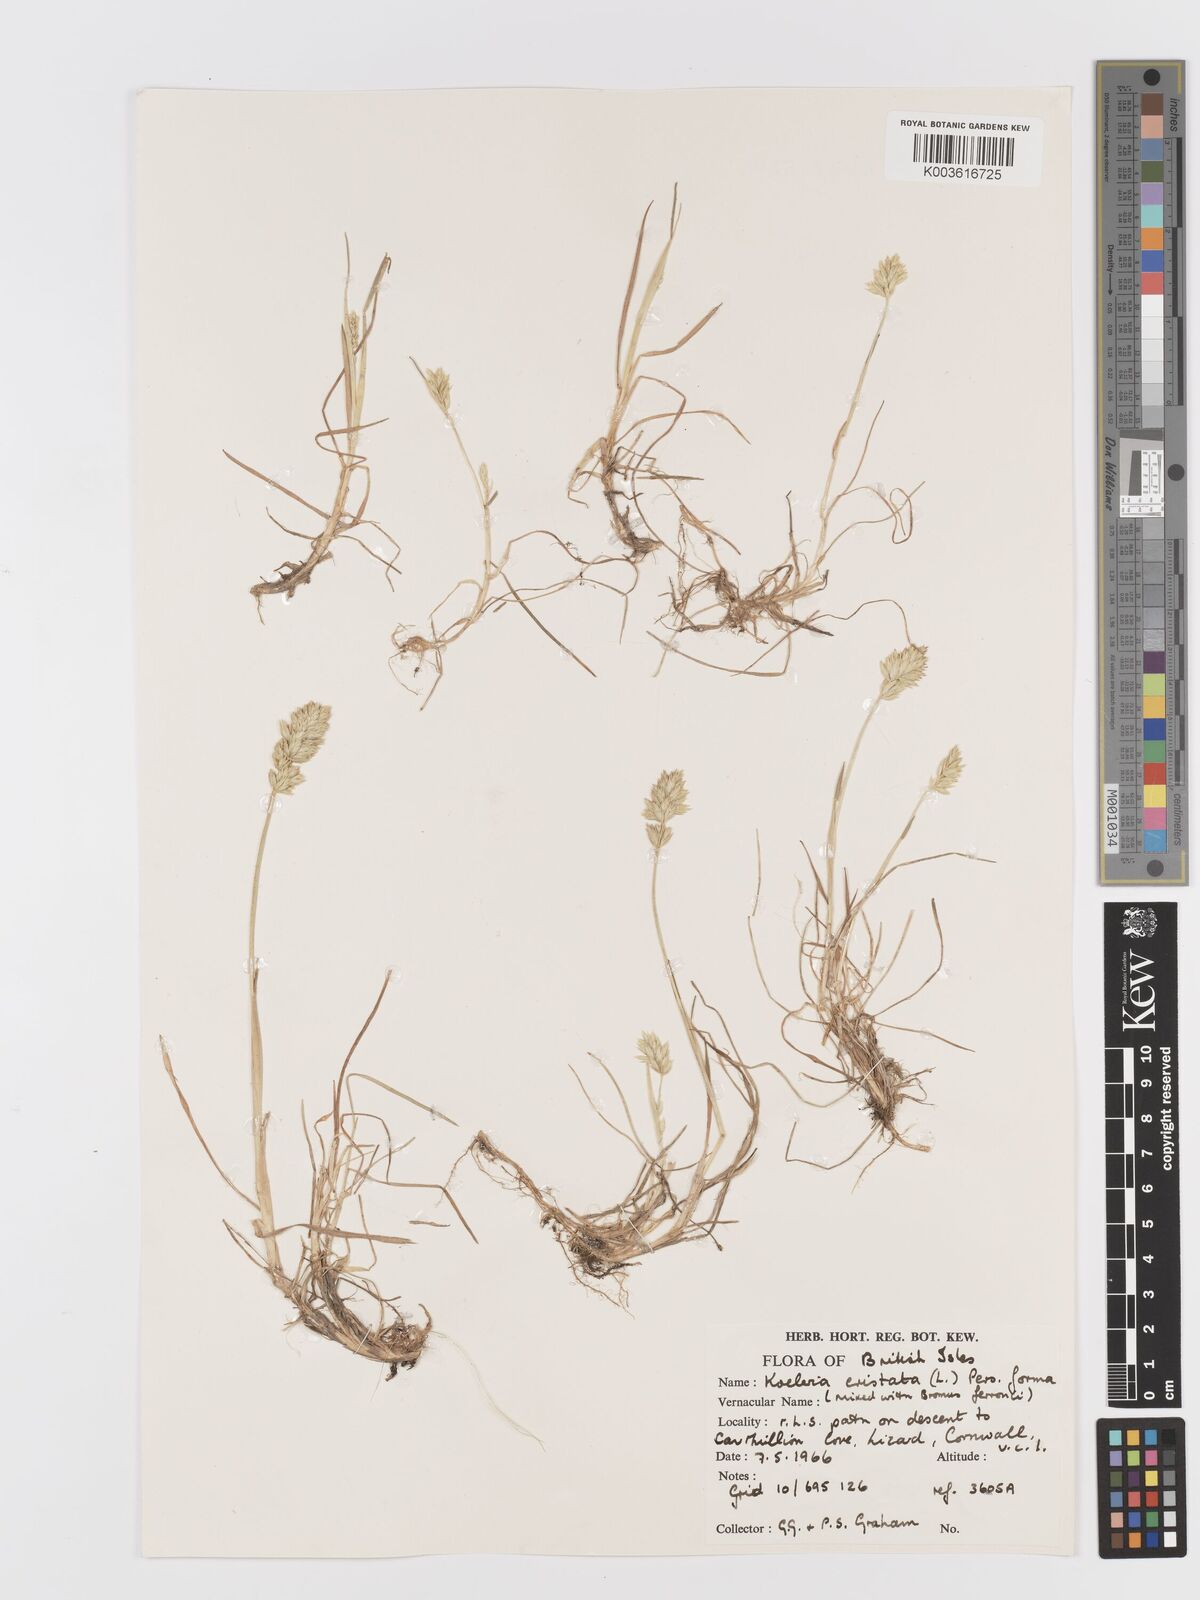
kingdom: Plantae
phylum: Tracheophyta
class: Liliopsida
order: Poales
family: Poaceae
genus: Koeleria
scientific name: Koeleria
